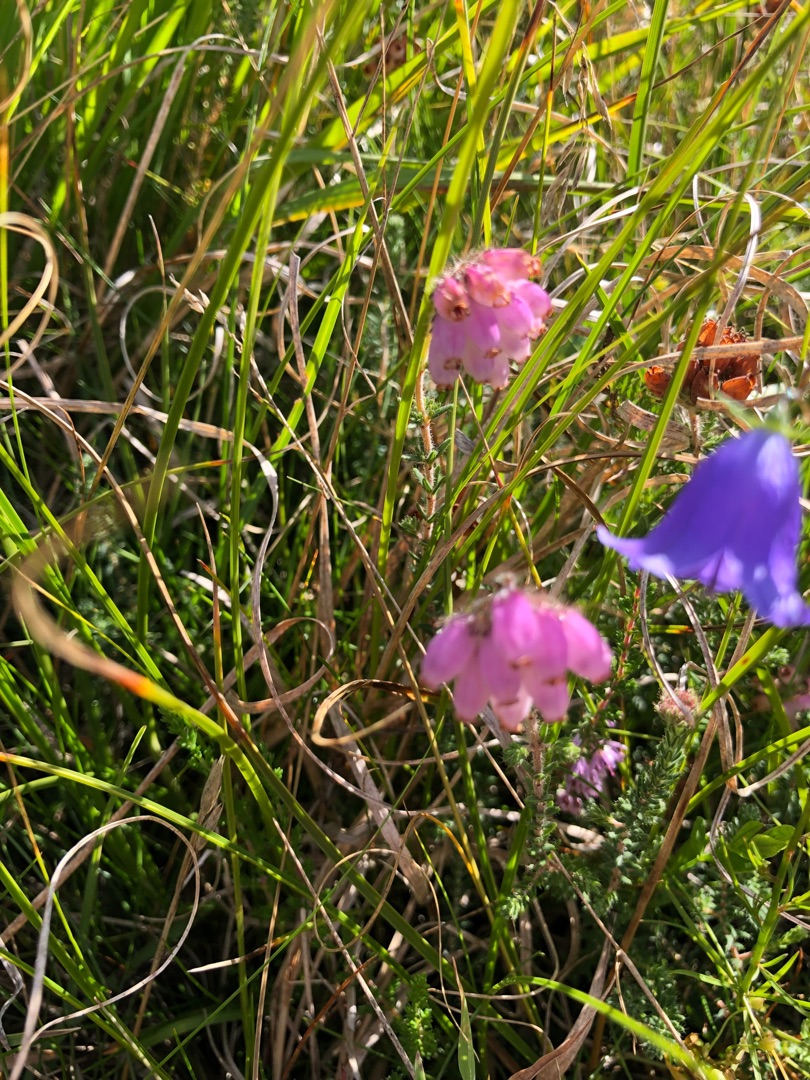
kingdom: Plantae
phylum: Tracheophyta
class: Magnoliopsida
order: Ericales
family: Ericaceae
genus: Erica
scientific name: Erica tetralix
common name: Klokkelyng
